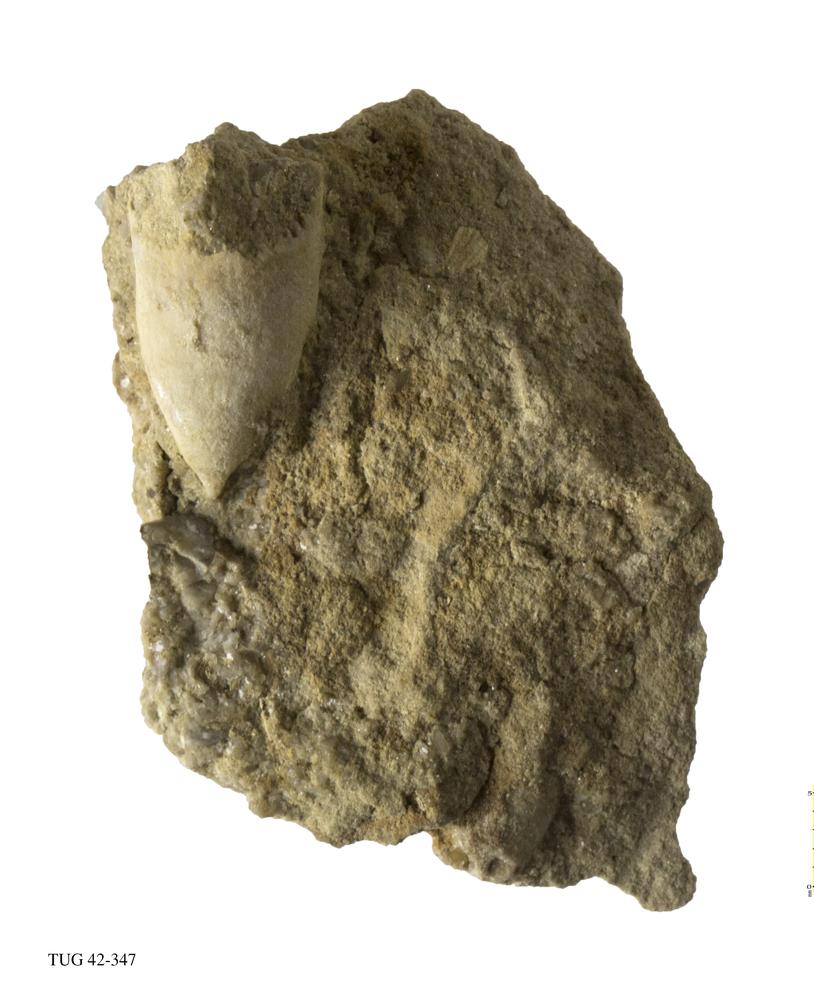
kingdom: Animalia
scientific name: Animalia
